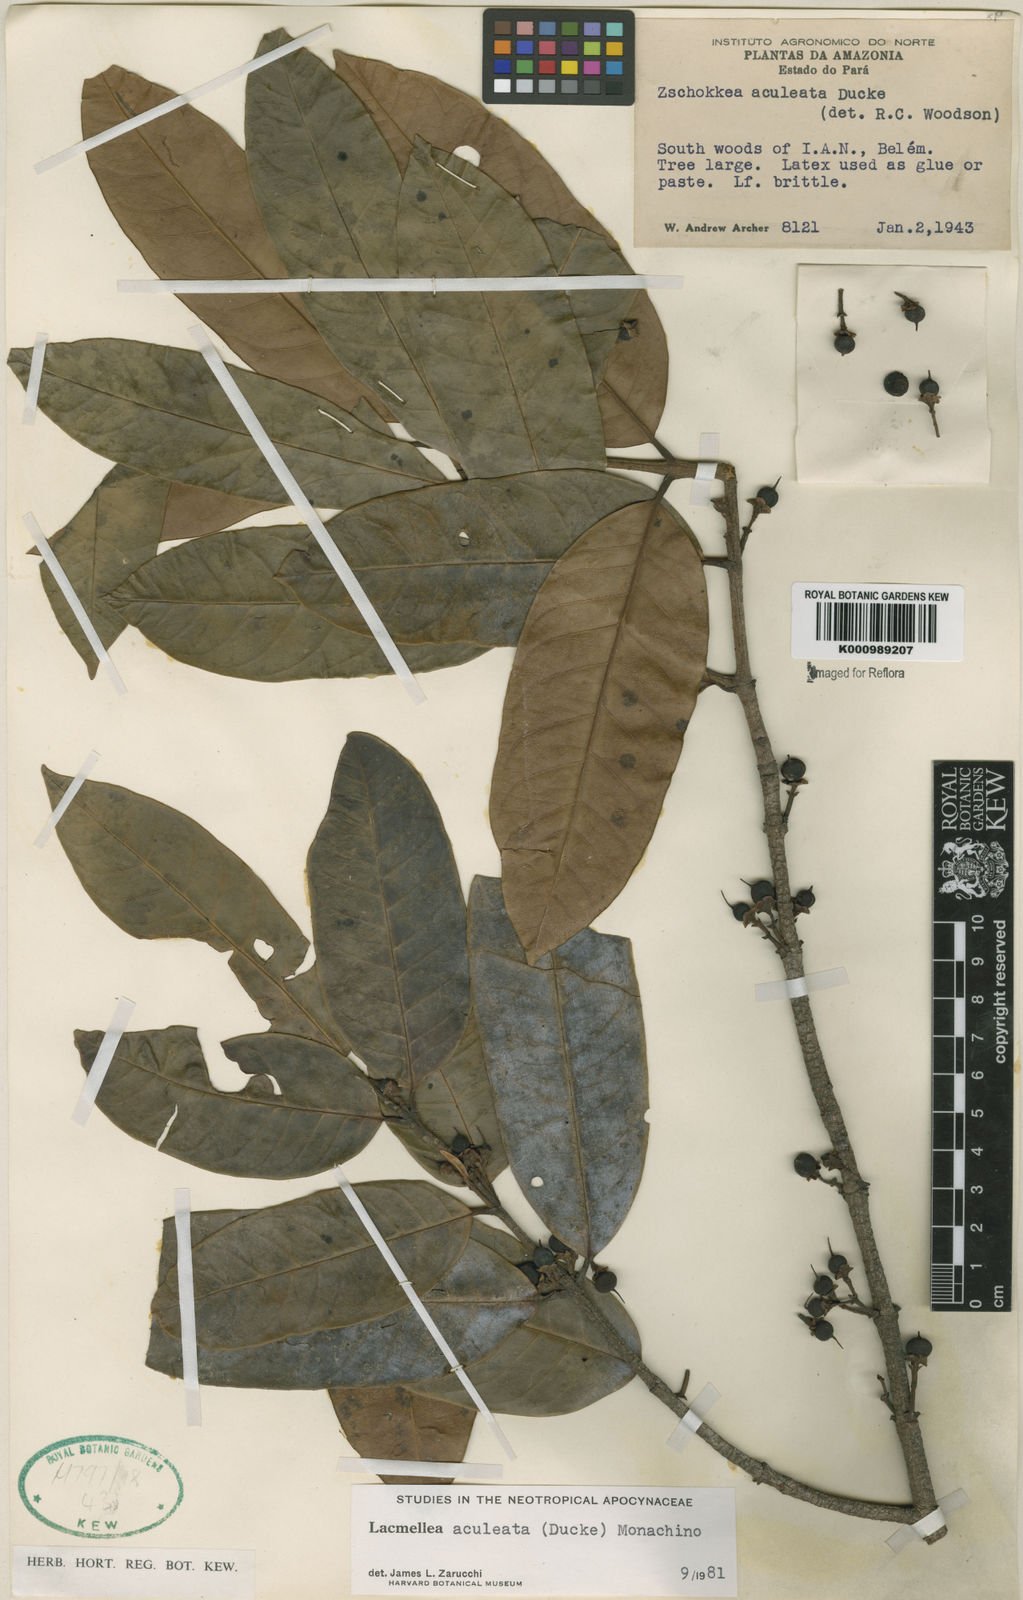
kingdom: Plantae
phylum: Tracheophyta
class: Magnoliopsida
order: Gentianales
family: Apocynaceae
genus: Lacmellea
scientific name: Lacmellea aculeata
